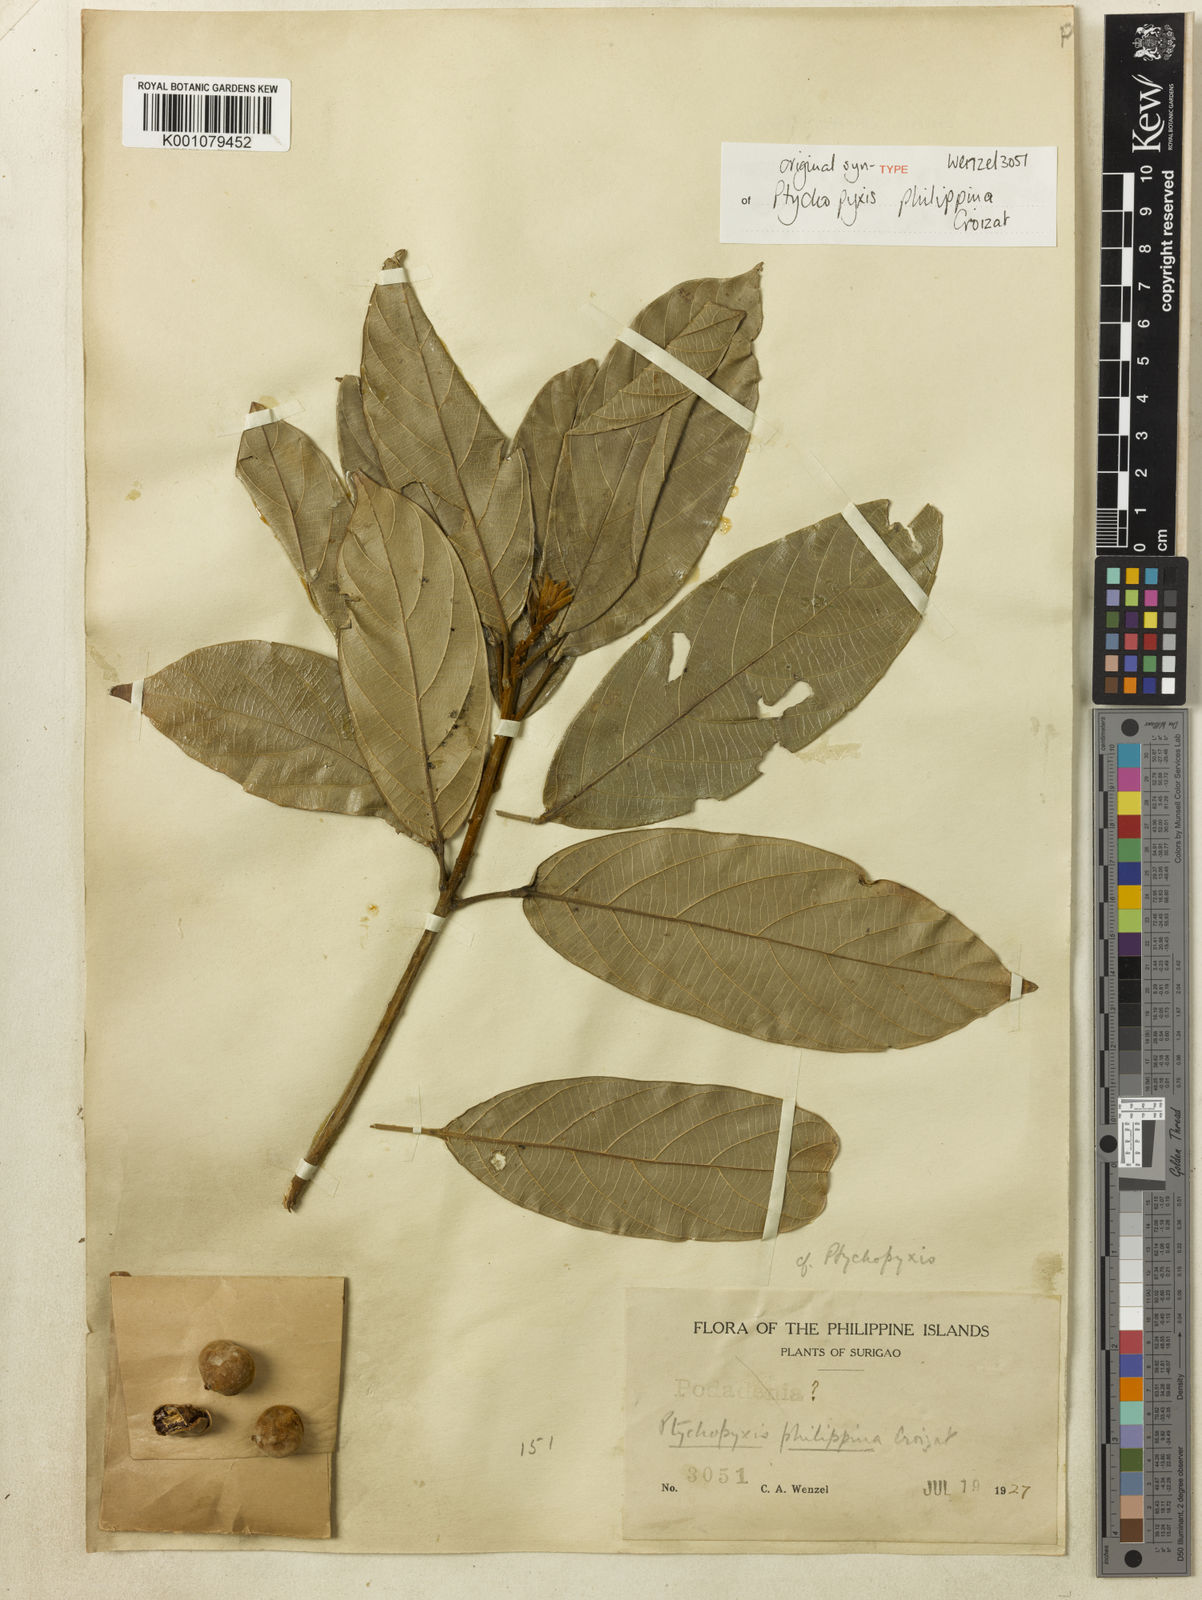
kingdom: Plantae
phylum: Tracheophyta
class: Magnoliopsida
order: Malpighiales
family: Euphorbiaceae
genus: Ptychopyxis
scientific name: Ptychopyxis bacciformis
